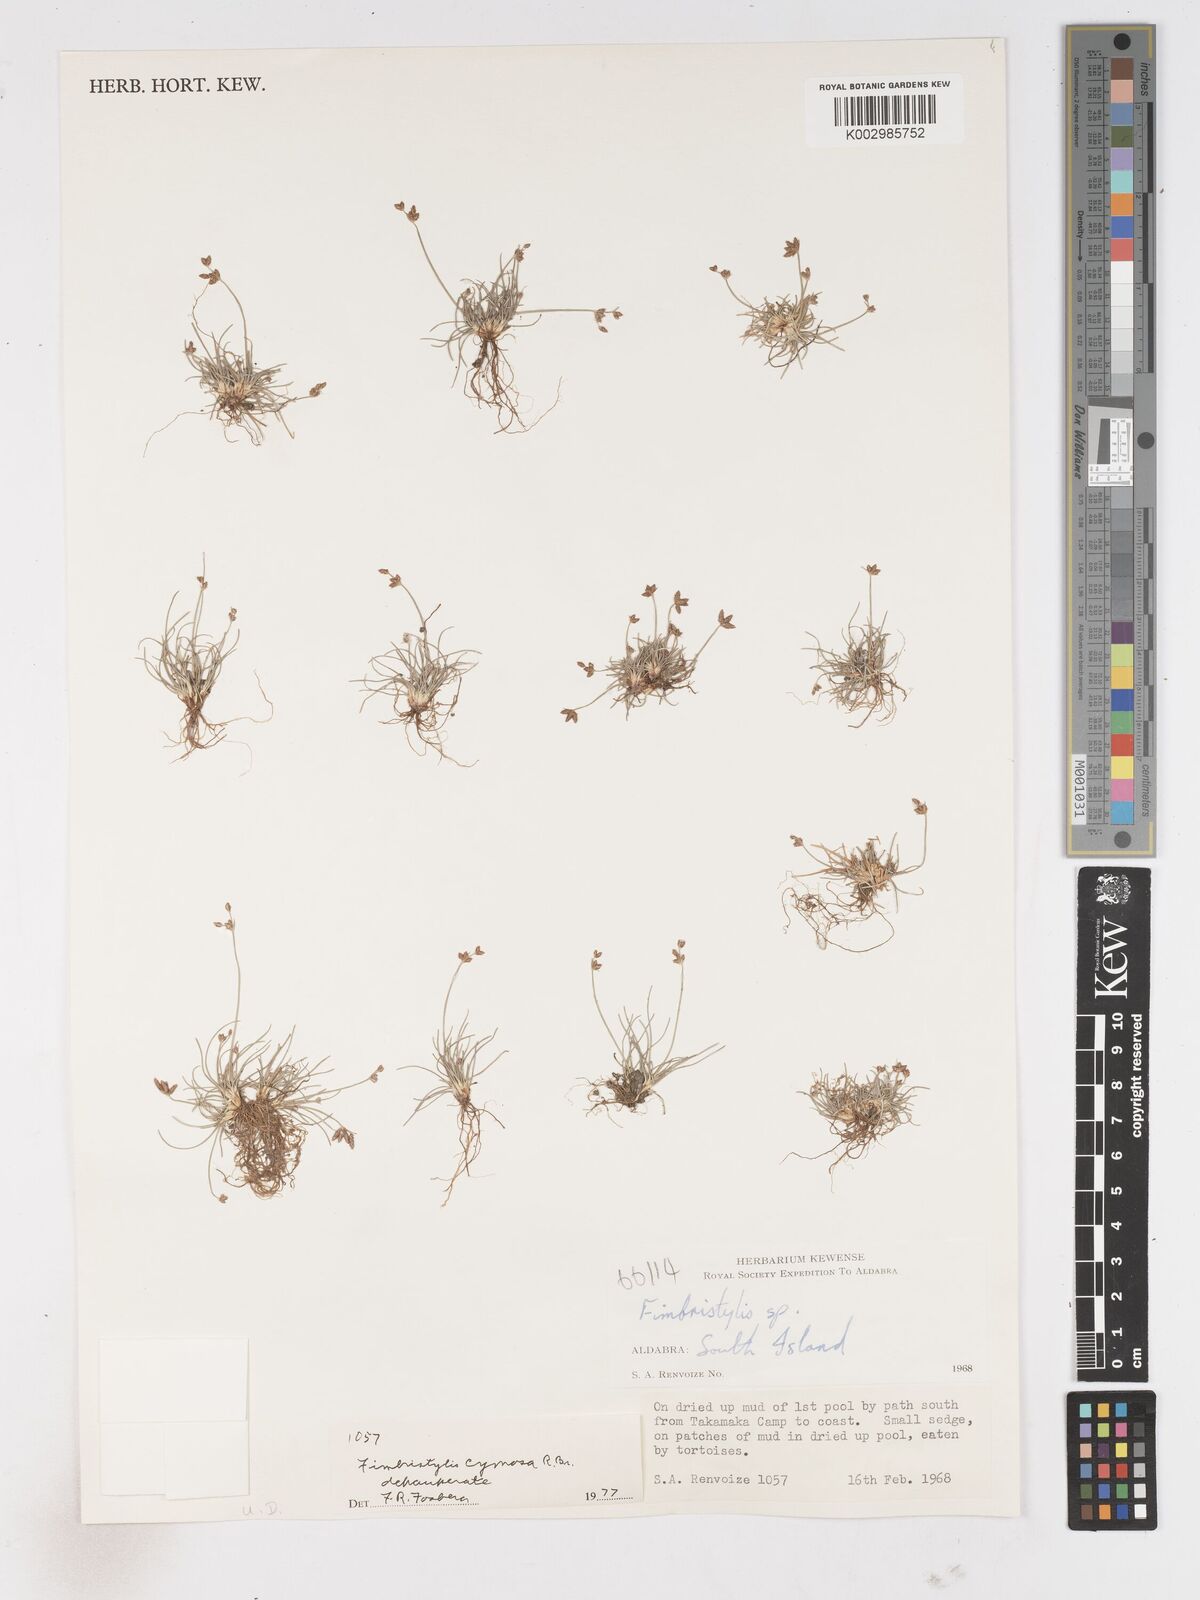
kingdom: Plantae
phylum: Tracheophyta
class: Liliopsida
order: Poales
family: Cyperaceae
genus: Fimbristylis
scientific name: Fimbristylis cymosa
